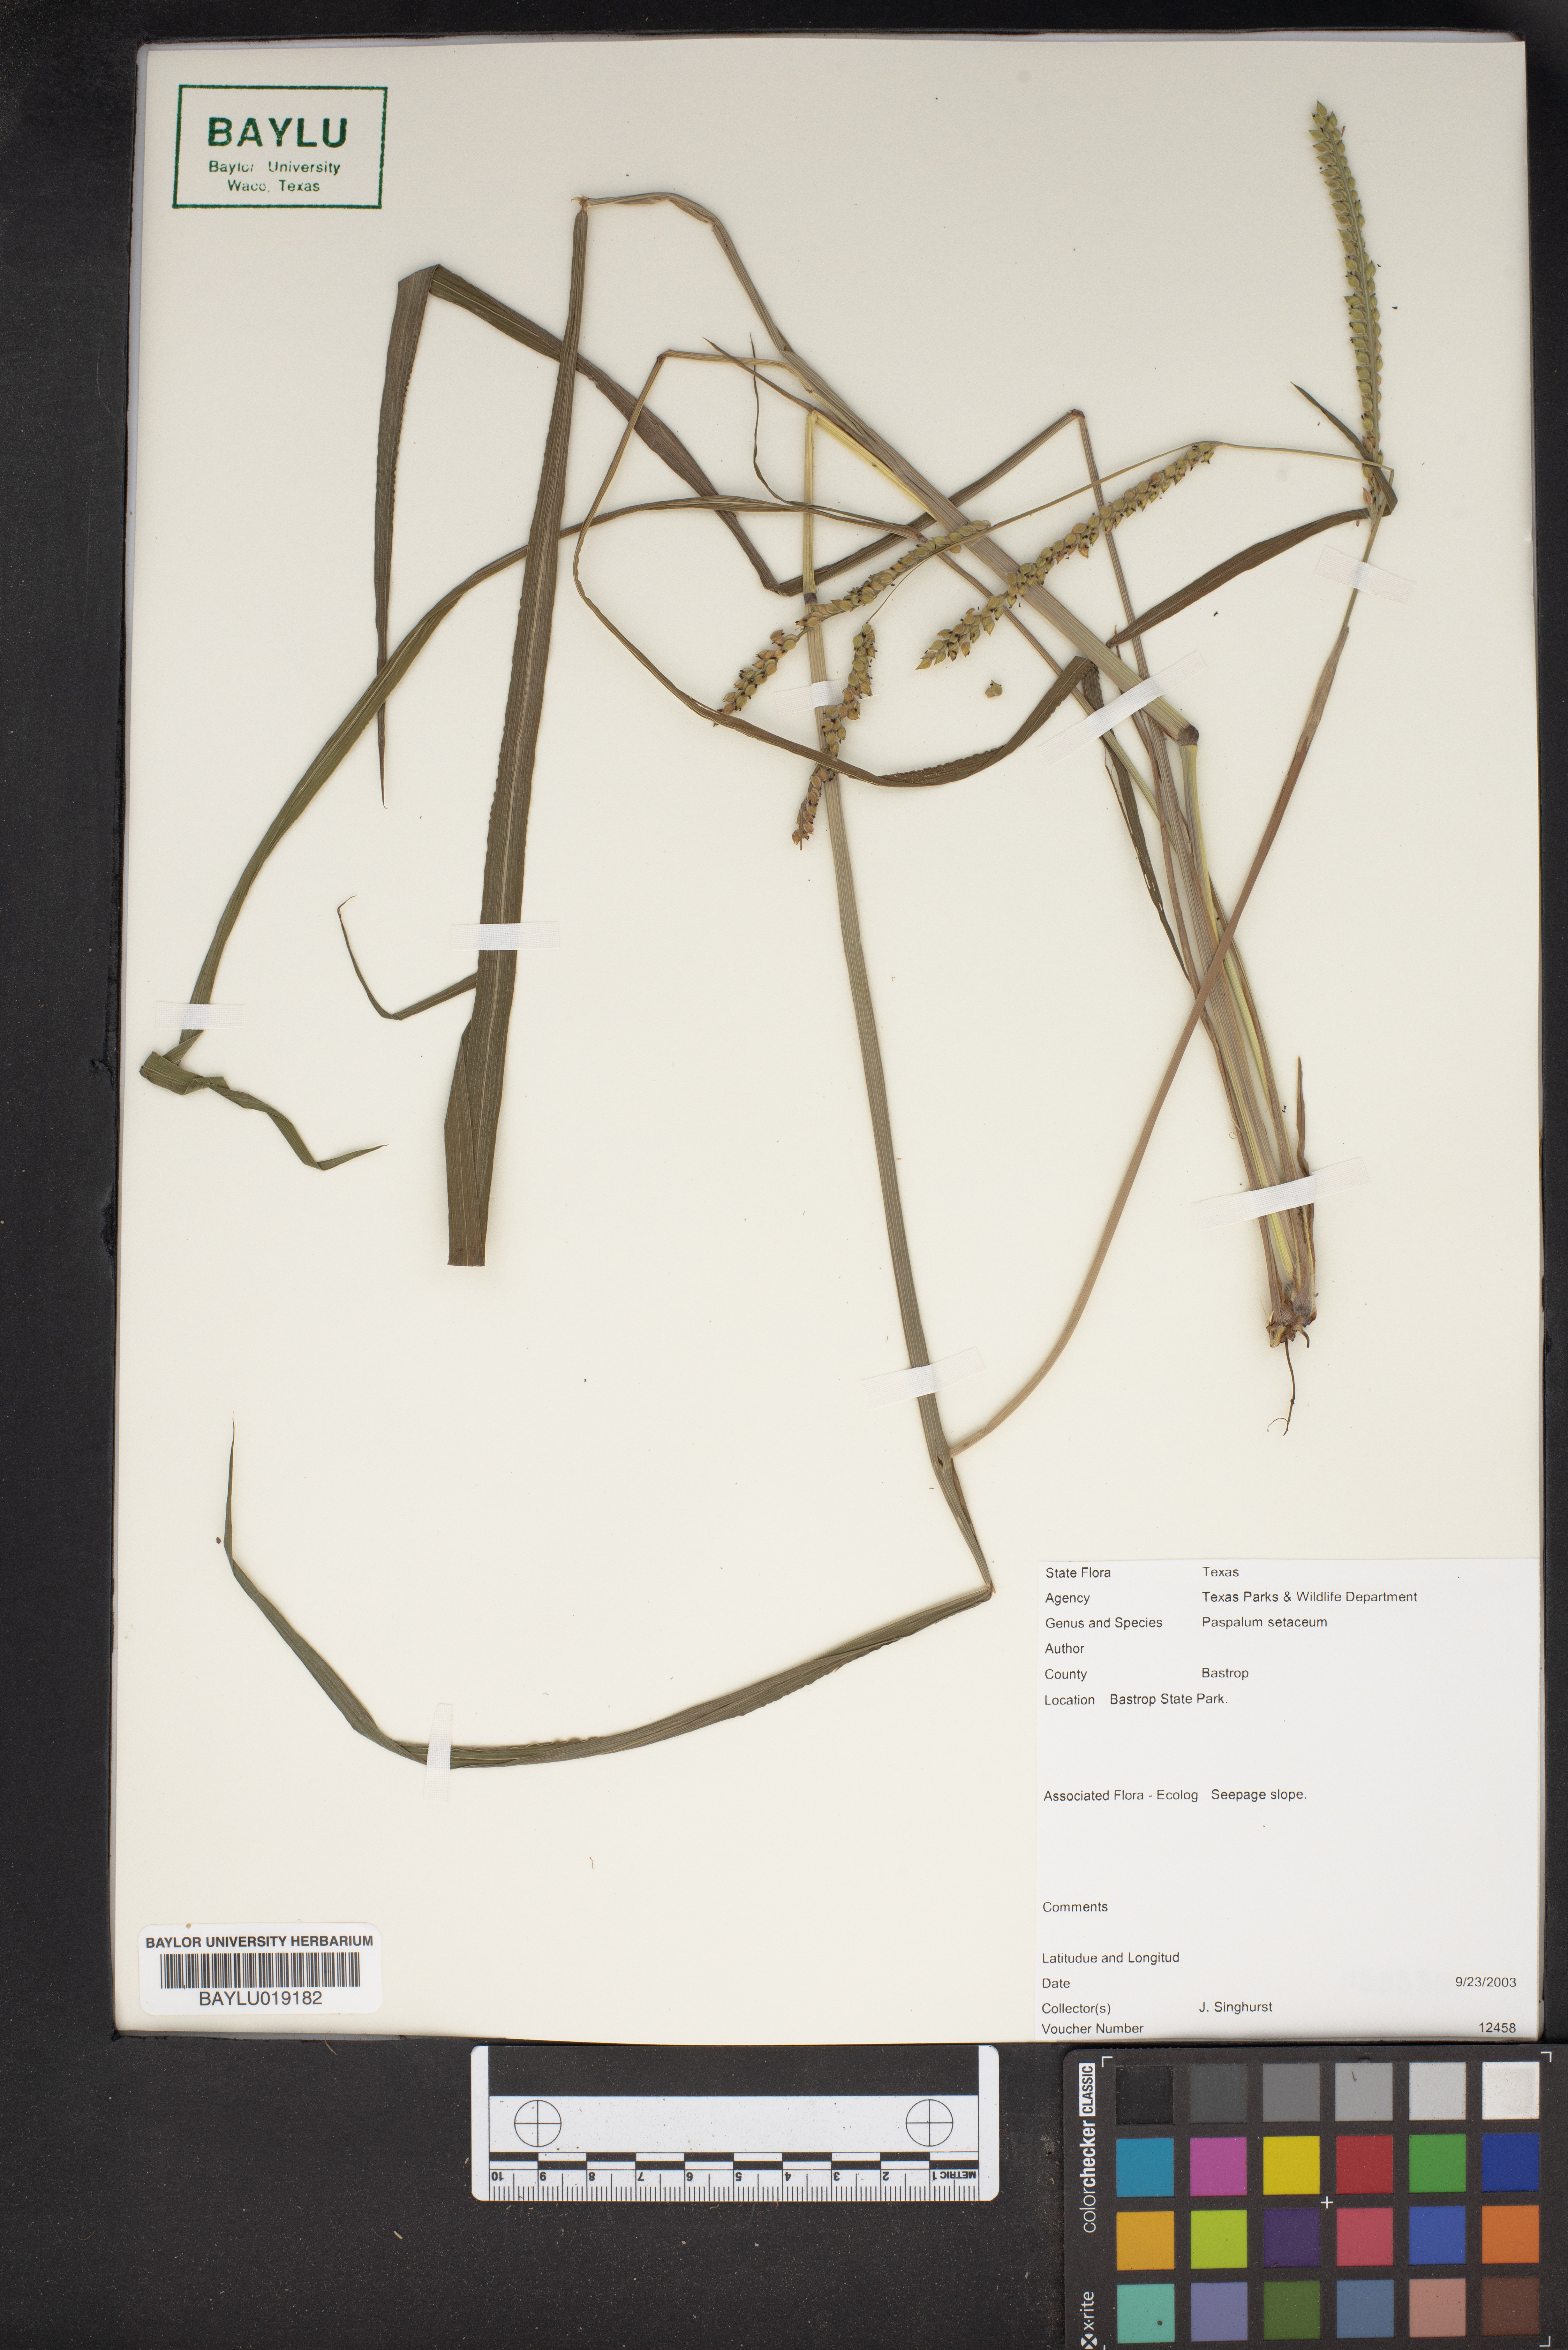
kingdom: Plantae
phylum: Tracheophyta
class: Liliopsida
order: Poales
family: Poaceae
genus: Paspalum
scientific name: Paspalum setaceum
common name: Slender paspalum
